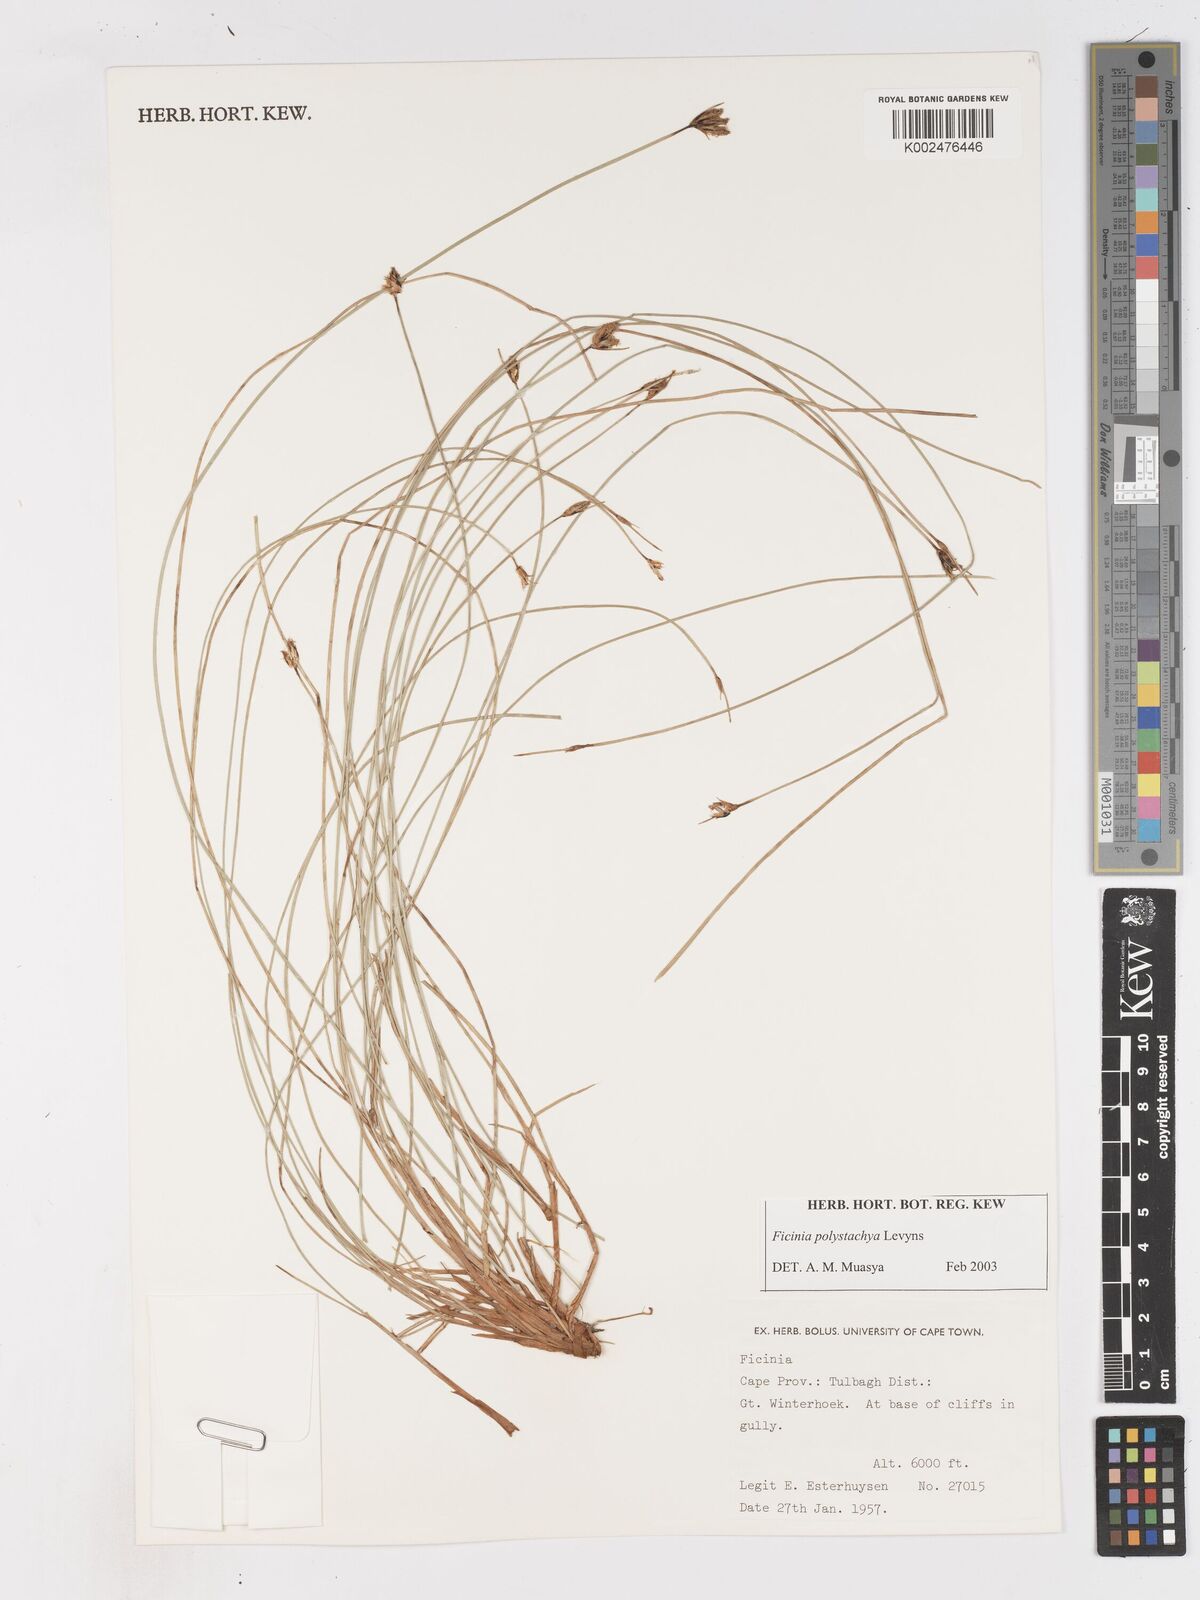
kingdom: Plantae
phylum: Tracheophyta
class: Liliopsida
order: Poales
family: Cyperaceae
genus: Ficinia
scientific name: Ficinia polystachya
